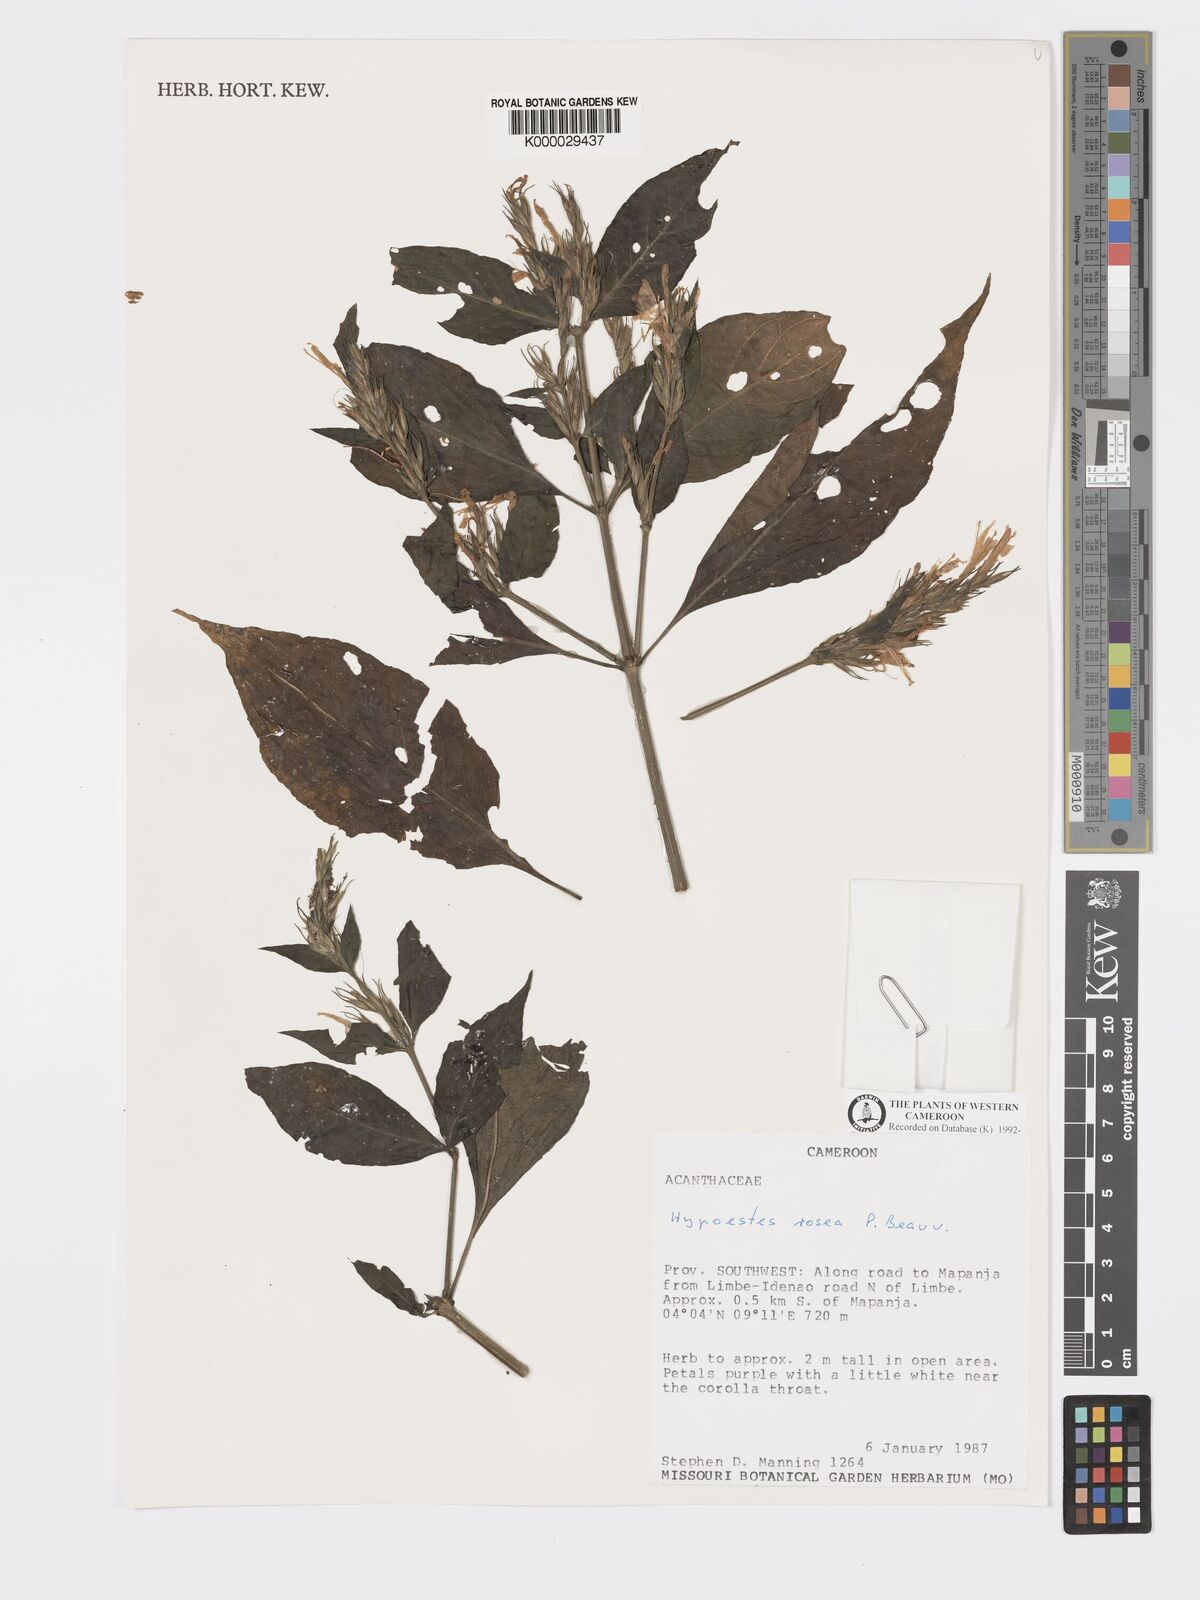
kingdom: Plantae
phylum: Tracheophyta
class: Magnoliopsida
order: Lamiales
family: Acanthaceae
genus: Hypoestes
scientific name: Hypoestes rosea
